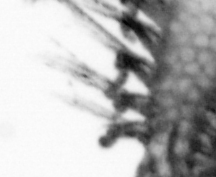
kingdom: Animalia
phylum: Annelida
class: Polychaeta
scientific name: Polychaeta
